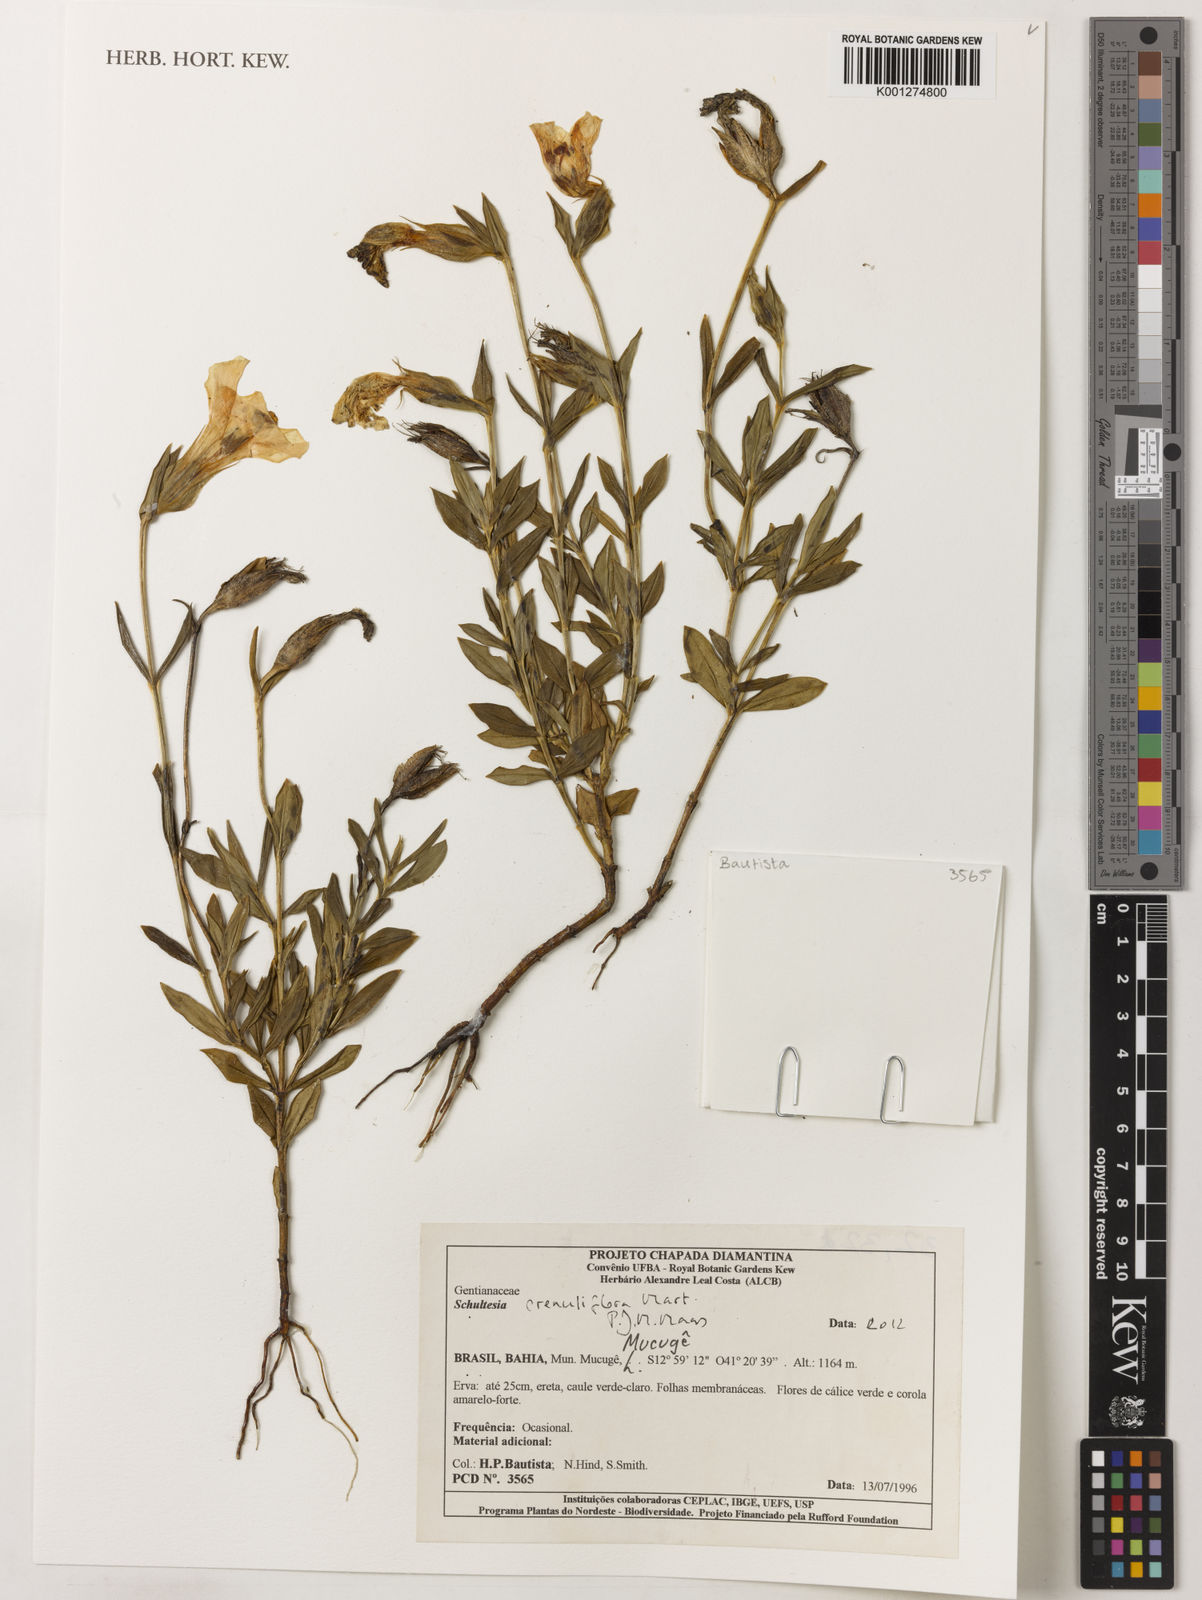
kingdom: Plantae
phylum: Tracheophyta
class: Magnoliopsida
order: Gentianales
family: Gentianaceae
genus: Schultesia
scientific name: Schultesia crenuliflora
